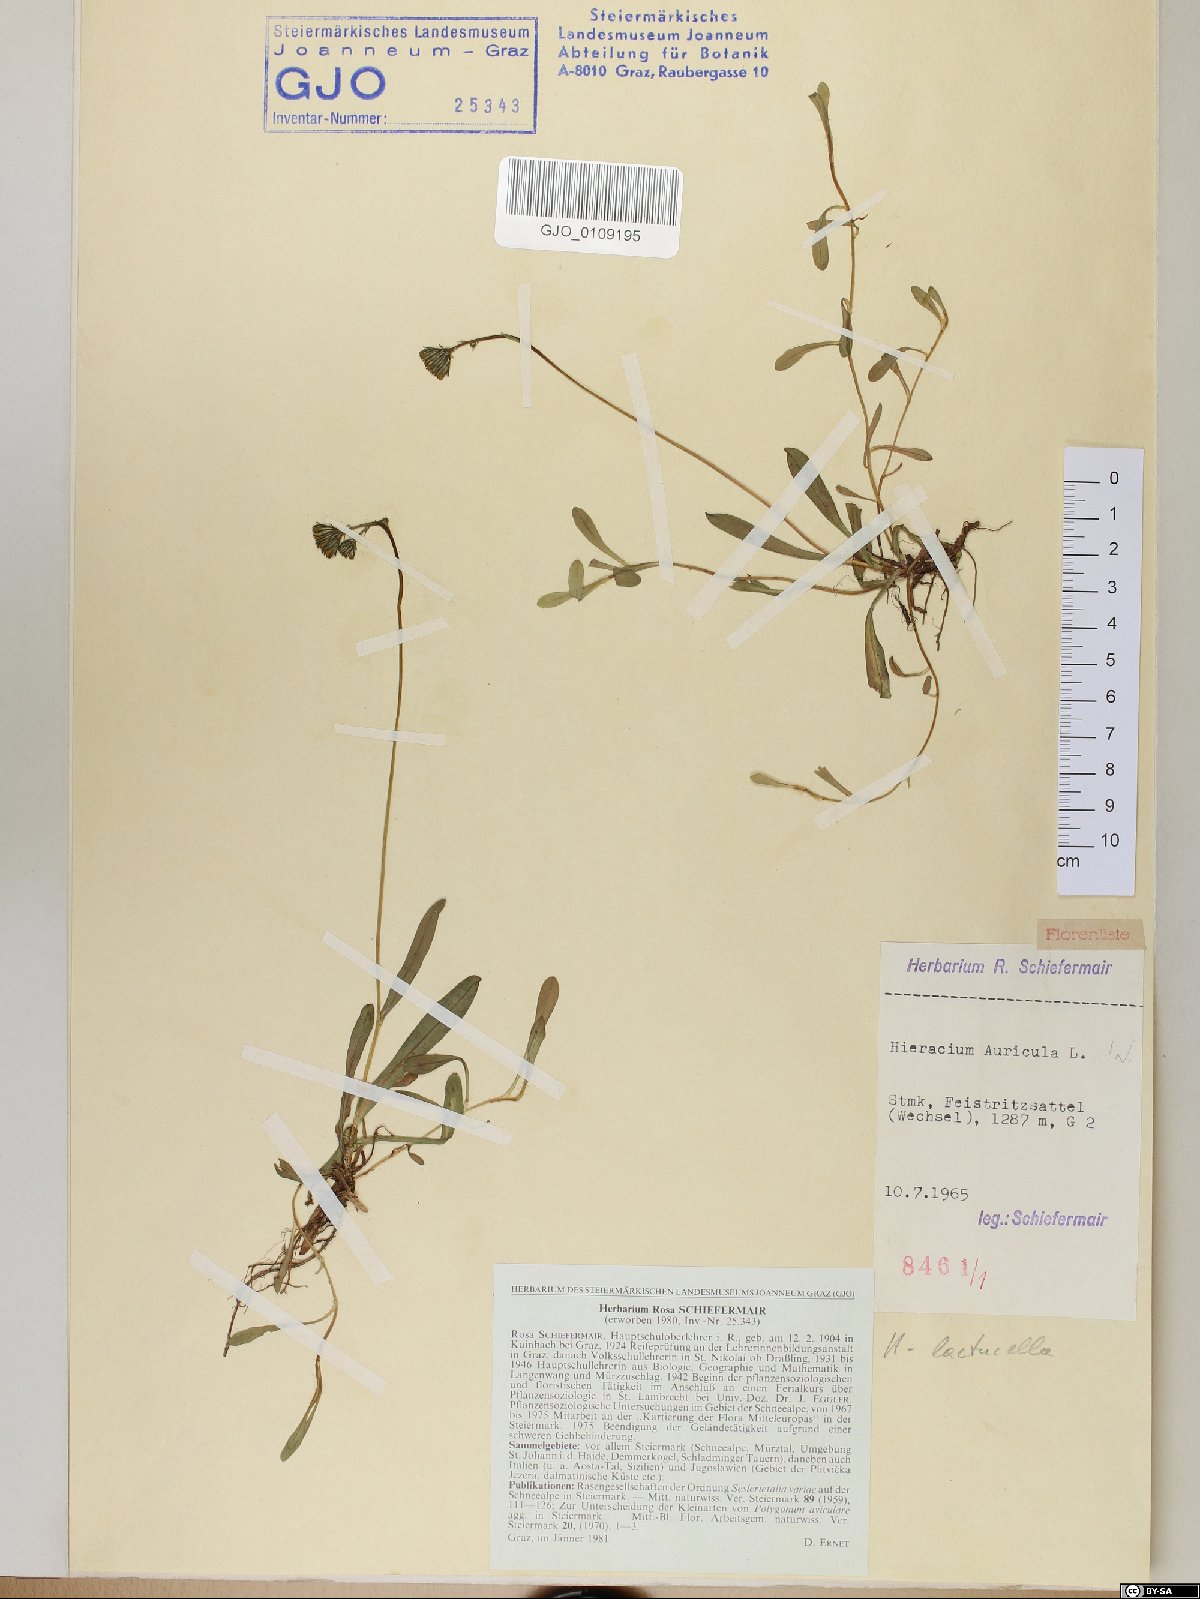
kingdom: Plantae
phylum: Tracheophyta
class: Magnoliopsida
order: Asterales
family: Asteraceae
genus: Pilosella
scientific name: Pilosella floribunda
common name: Glaucous hawkweed
